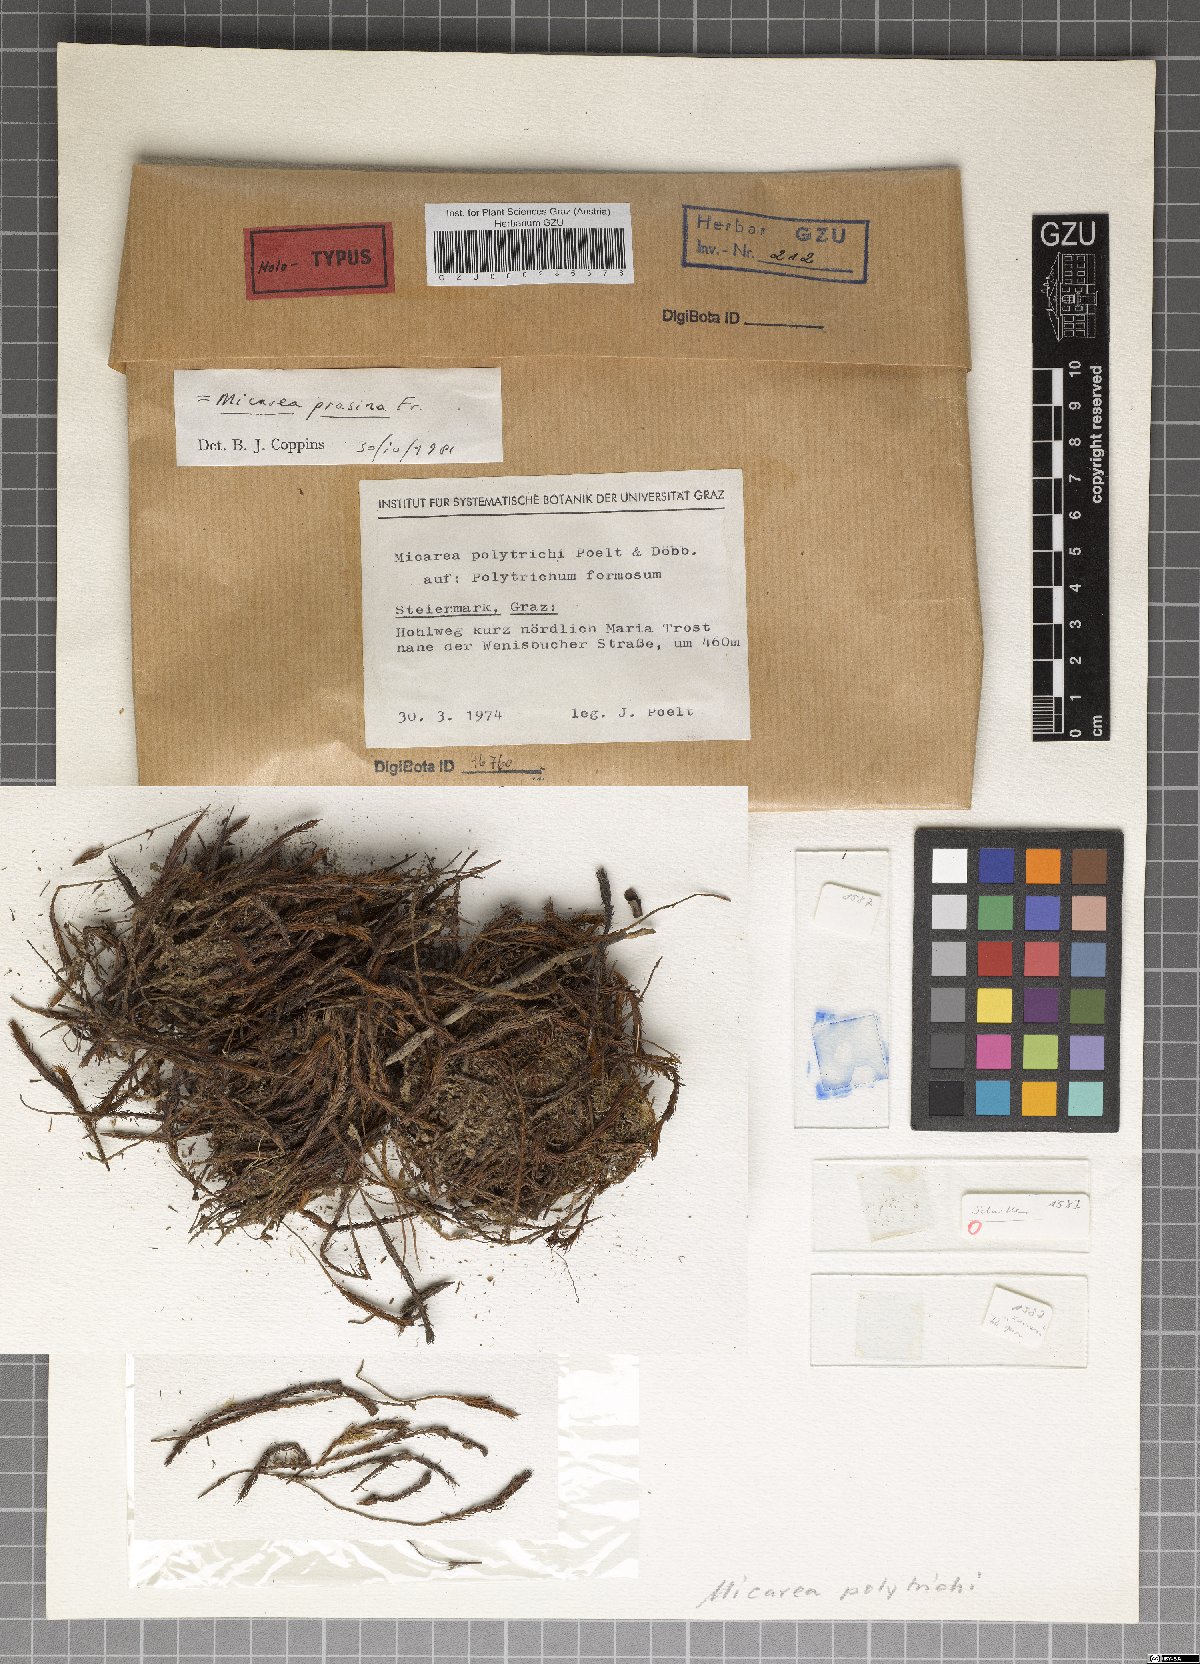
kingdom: Fungi
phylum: Ascomycota
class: Lecanoromycetes
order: Lecanorales
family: Byssolomataceae
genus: Micarea
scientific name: Micarea prasina
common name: Green dot lichen
